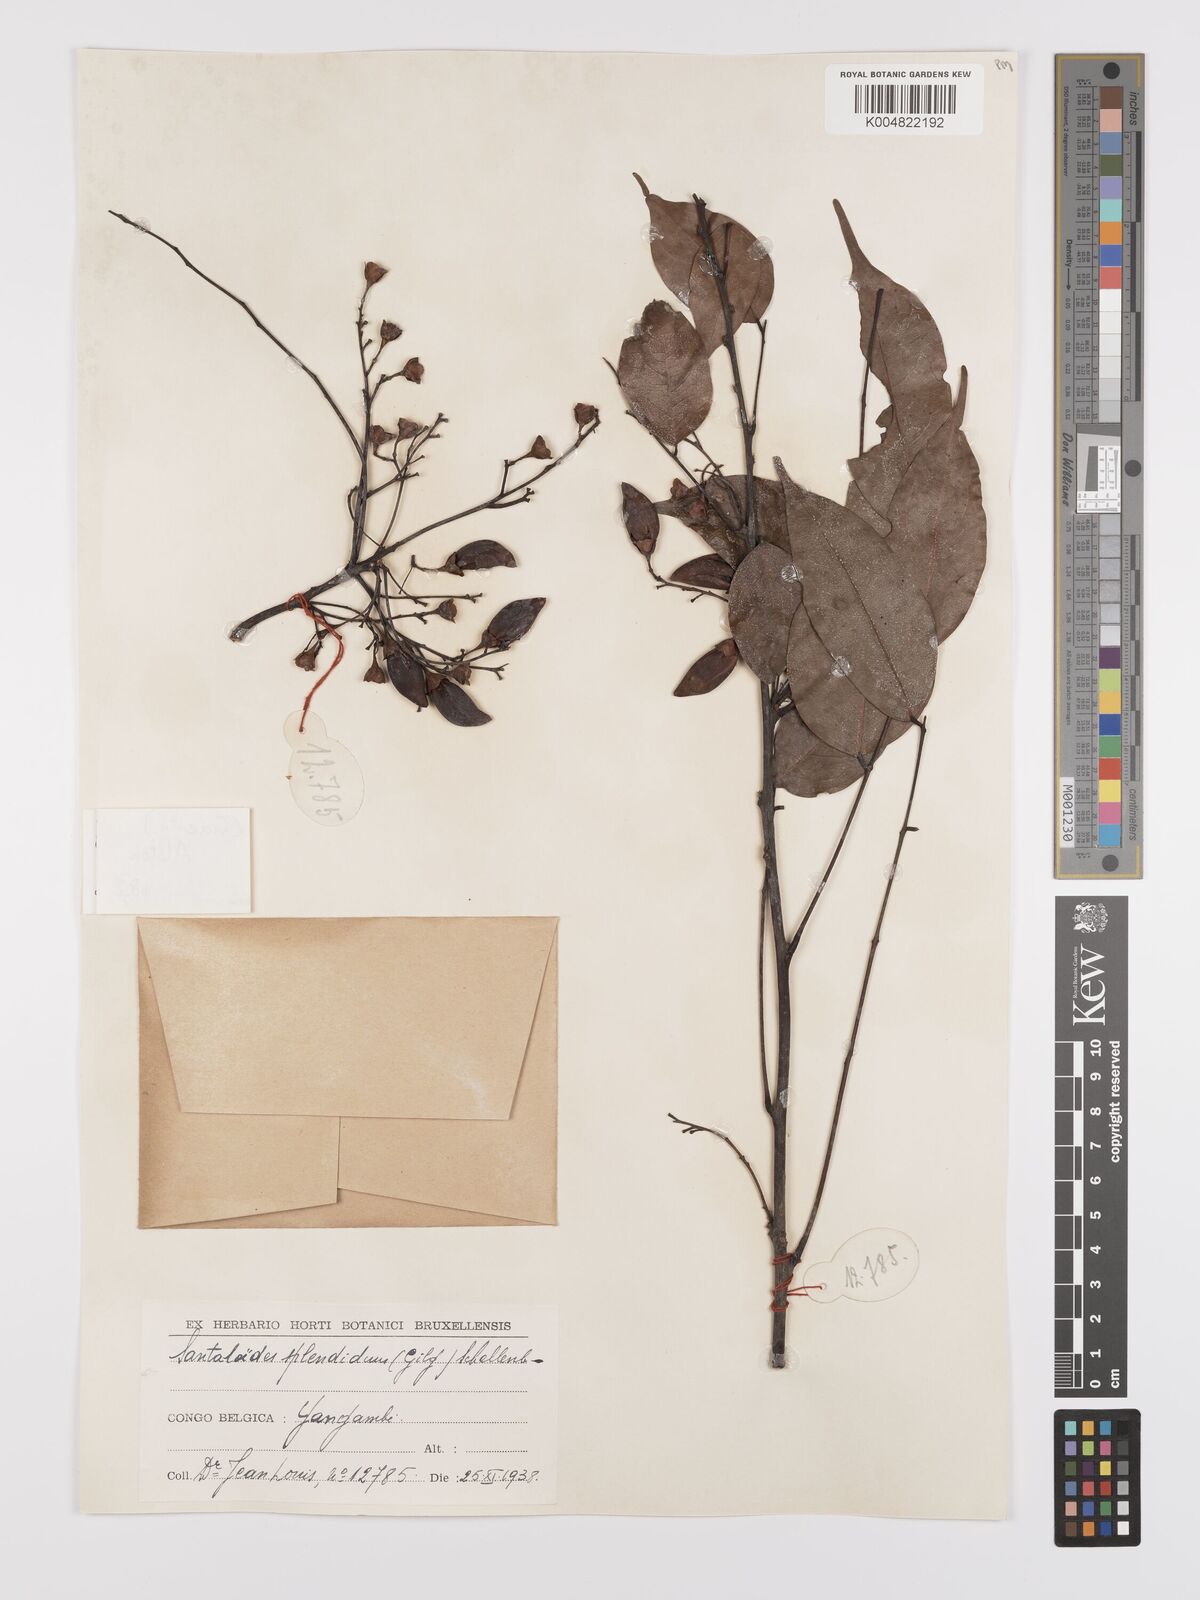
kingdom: Plantae
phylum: Tracheophyta
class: Magnoliopsida
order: Oxalidales
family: Connaraceae
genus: Rourea
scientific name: Rourea minor
